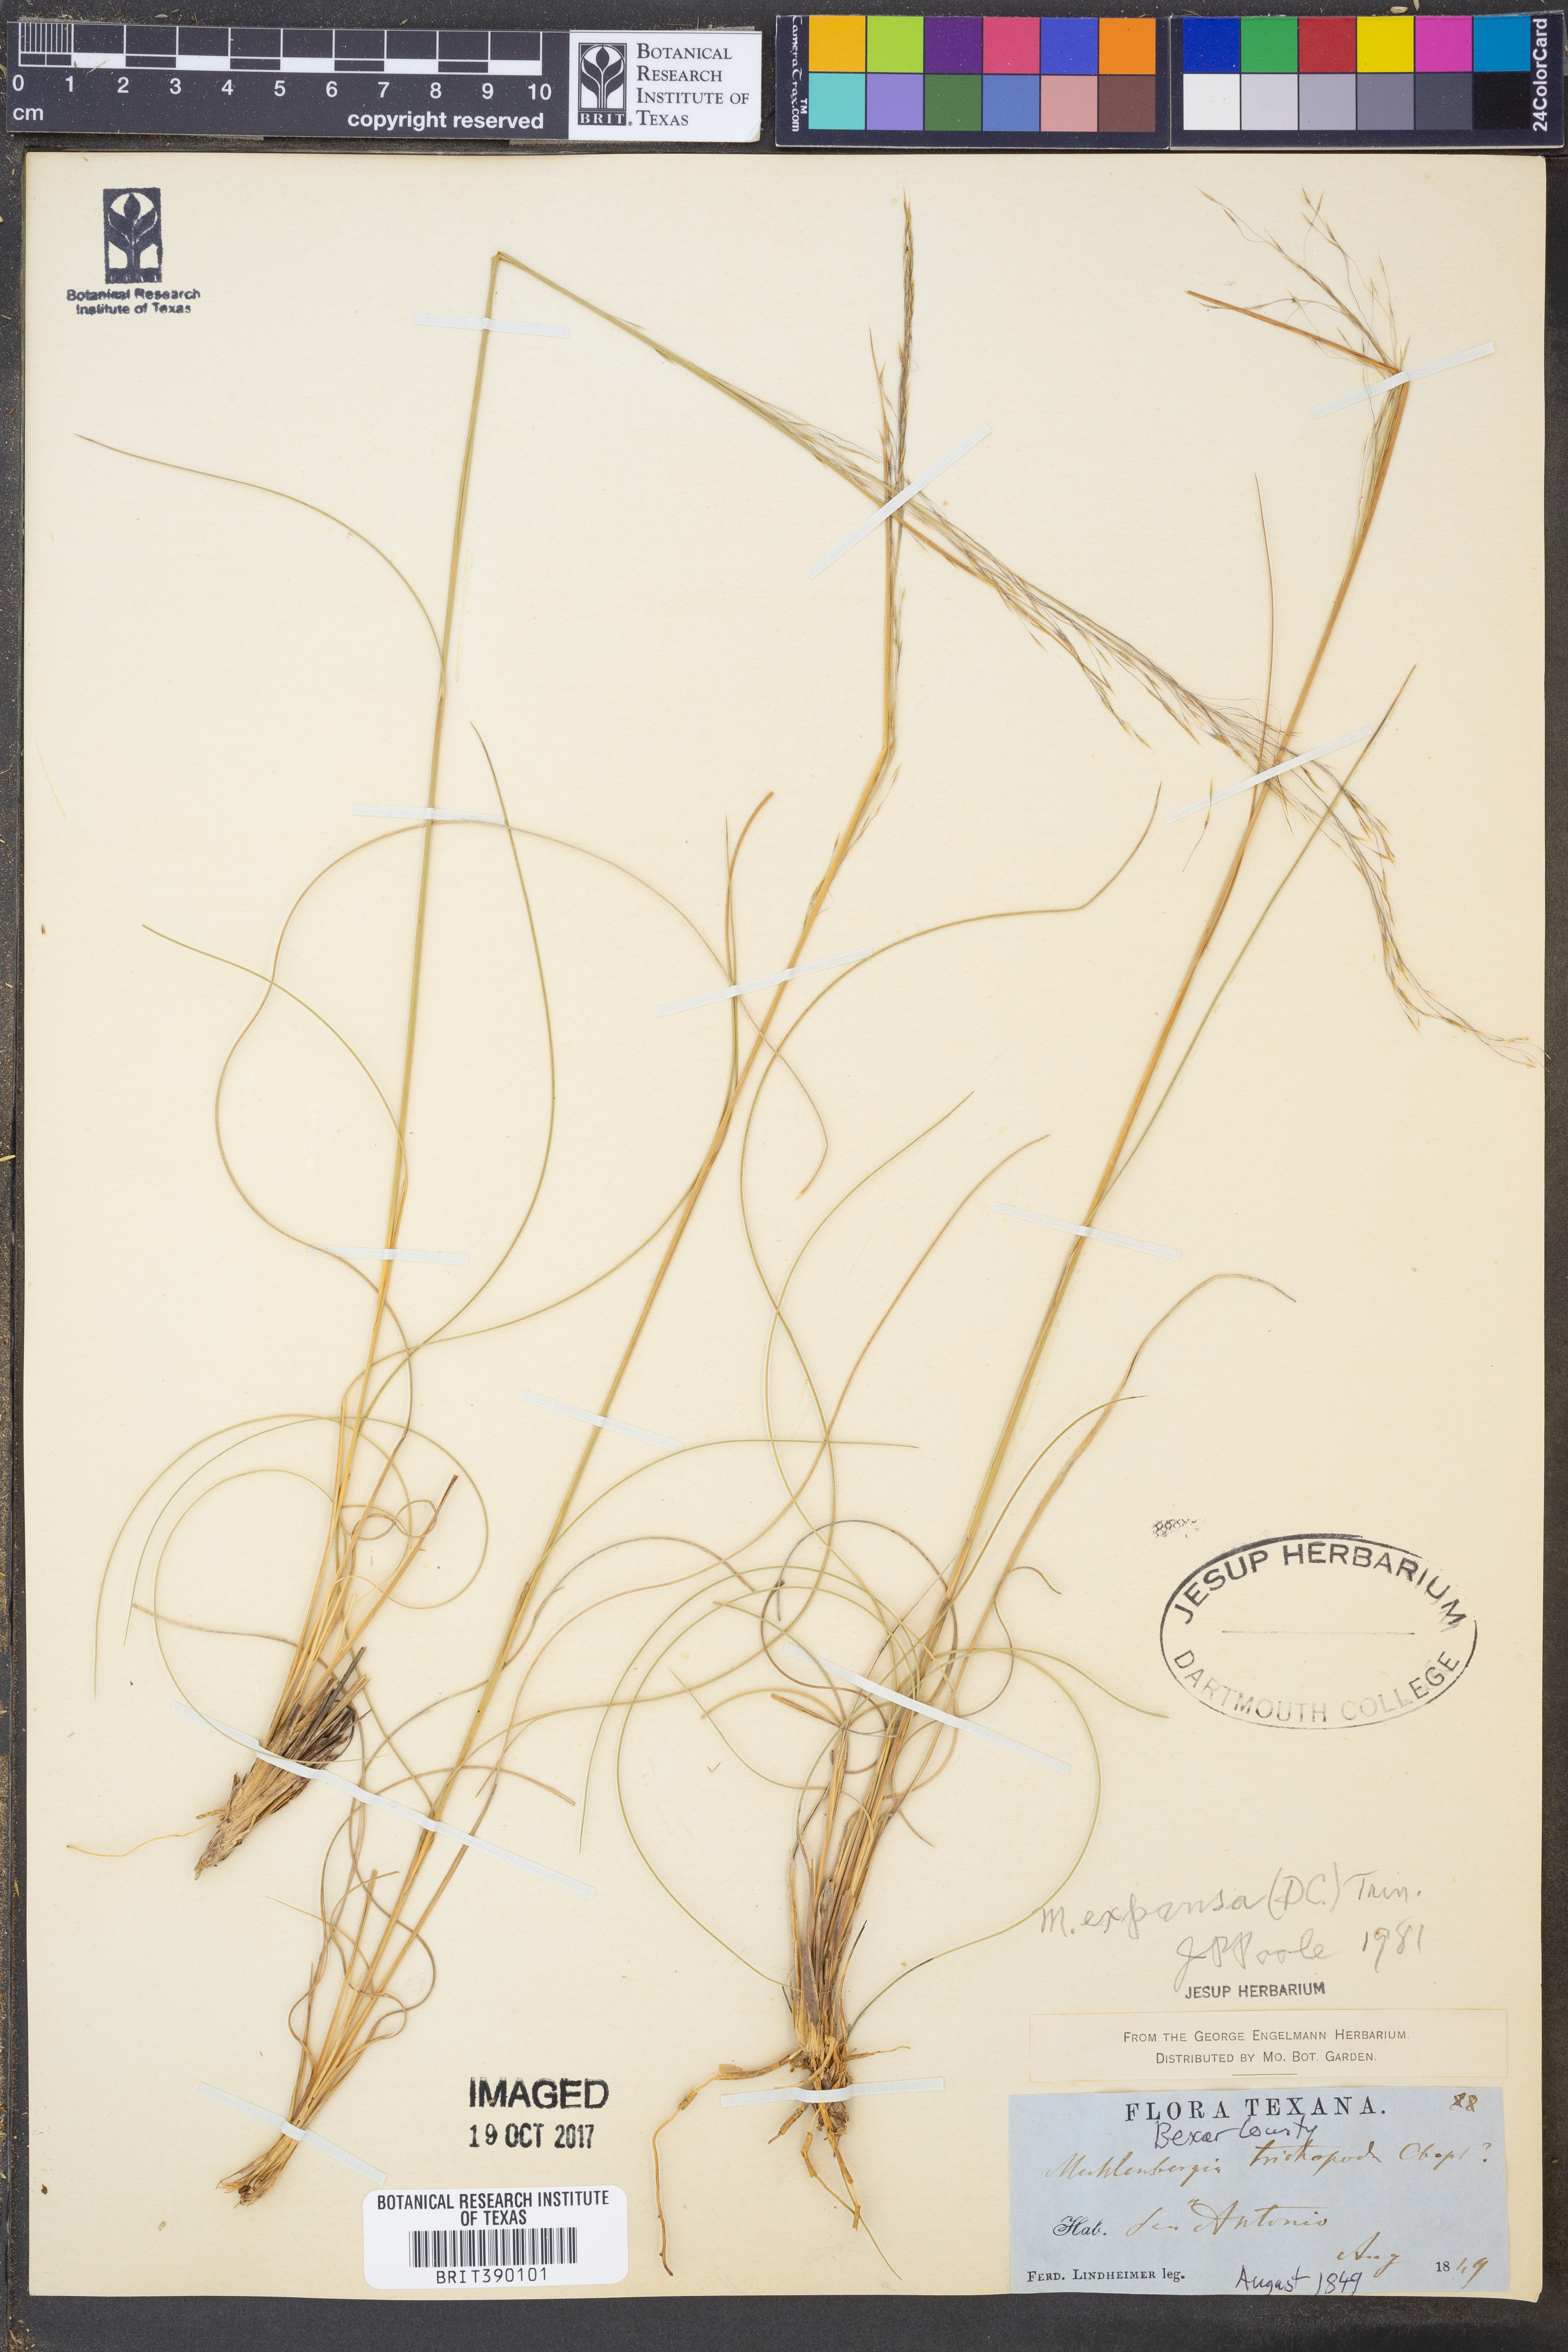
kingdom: Plantae
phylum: Tracheophyta
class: Liliopsida
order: Poales
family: Poaceae
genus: Muhlenbergia
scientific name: Muhlenbergia expansa
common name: Savannah hairgrass
